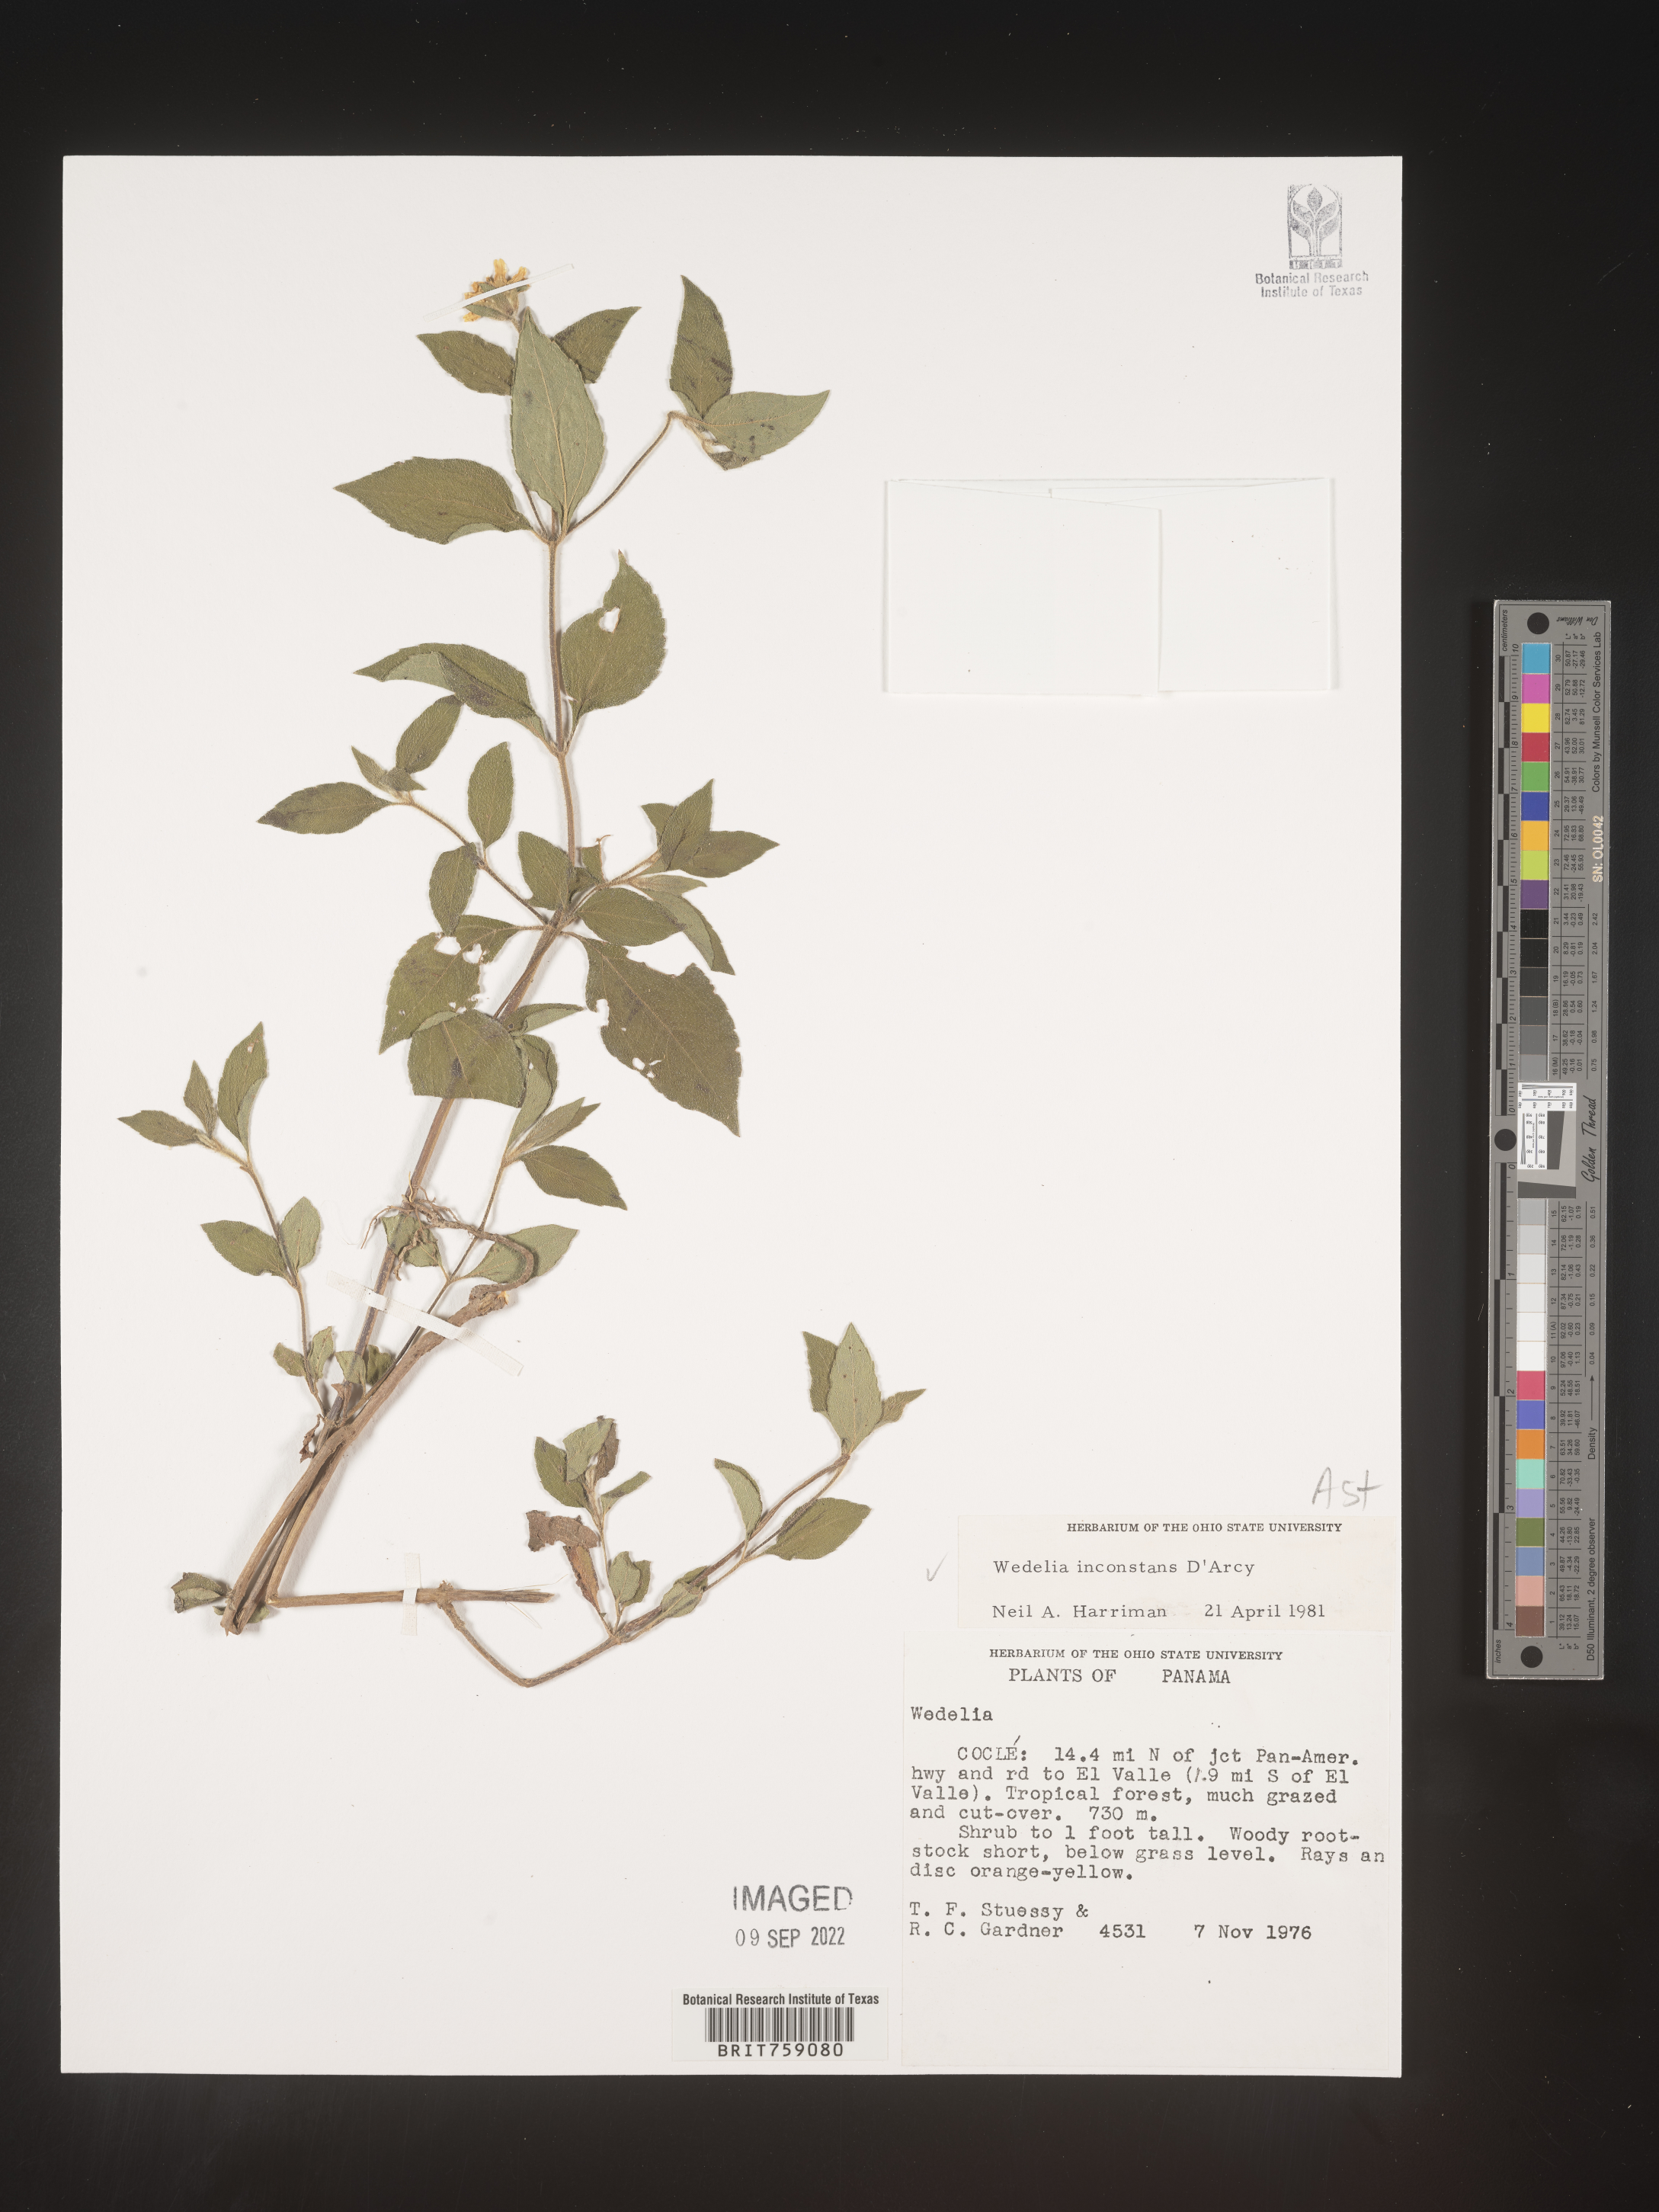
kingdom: Plantae
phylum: Tracheophyta
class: Magnoliopsida
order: Asterales
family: Asteraceae
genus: Wedelia
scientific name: Wedelia
